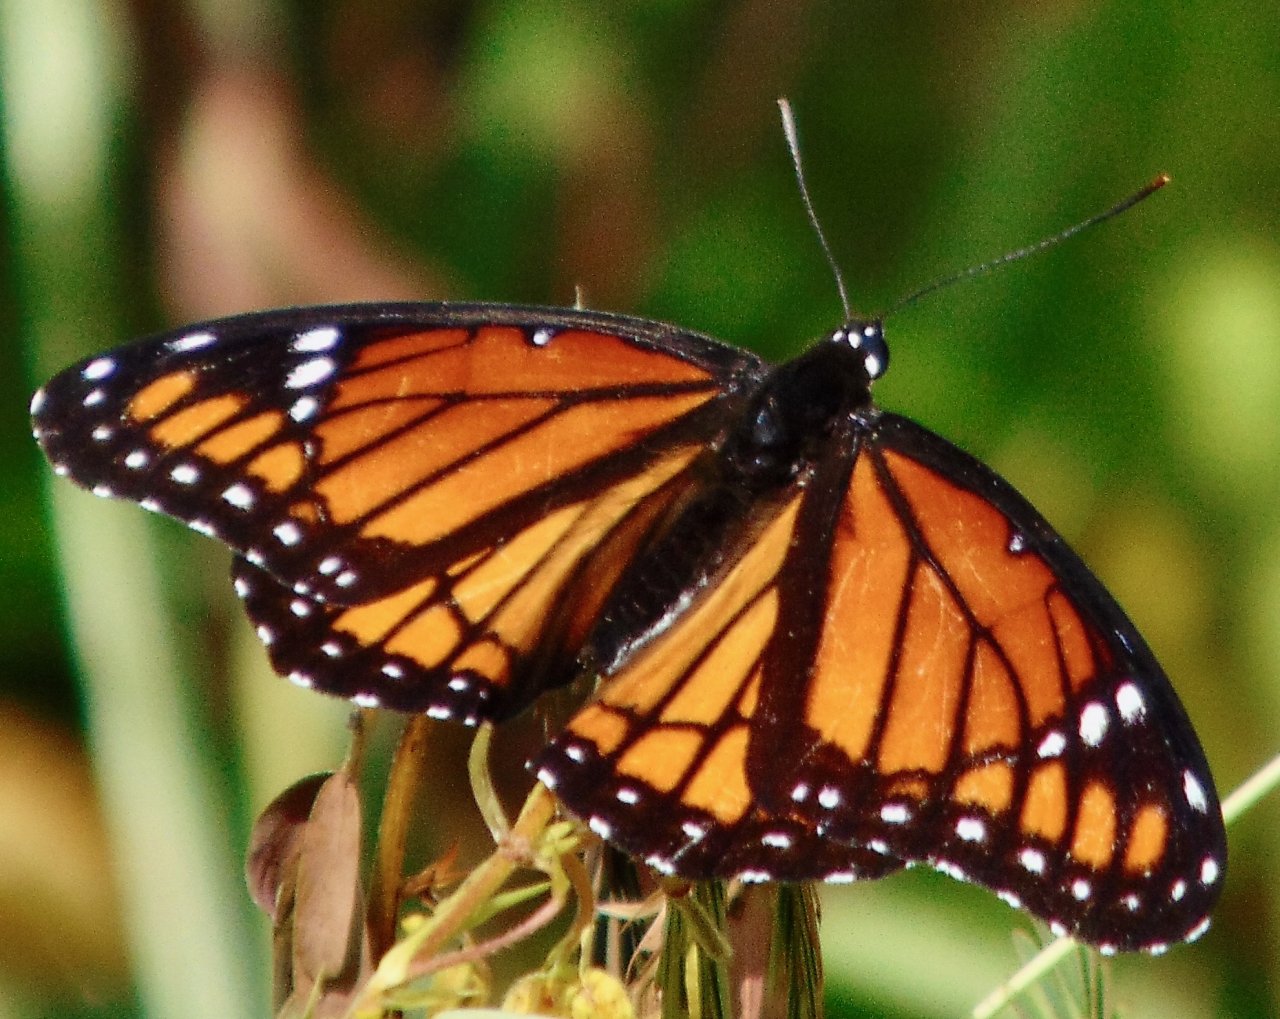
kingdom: Animalia
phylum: Arthropoda
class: Insecta
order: Lepidoptera
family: Nymphalidae
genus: Limenitis
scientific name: Limenitis archippus
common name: Viceroy
